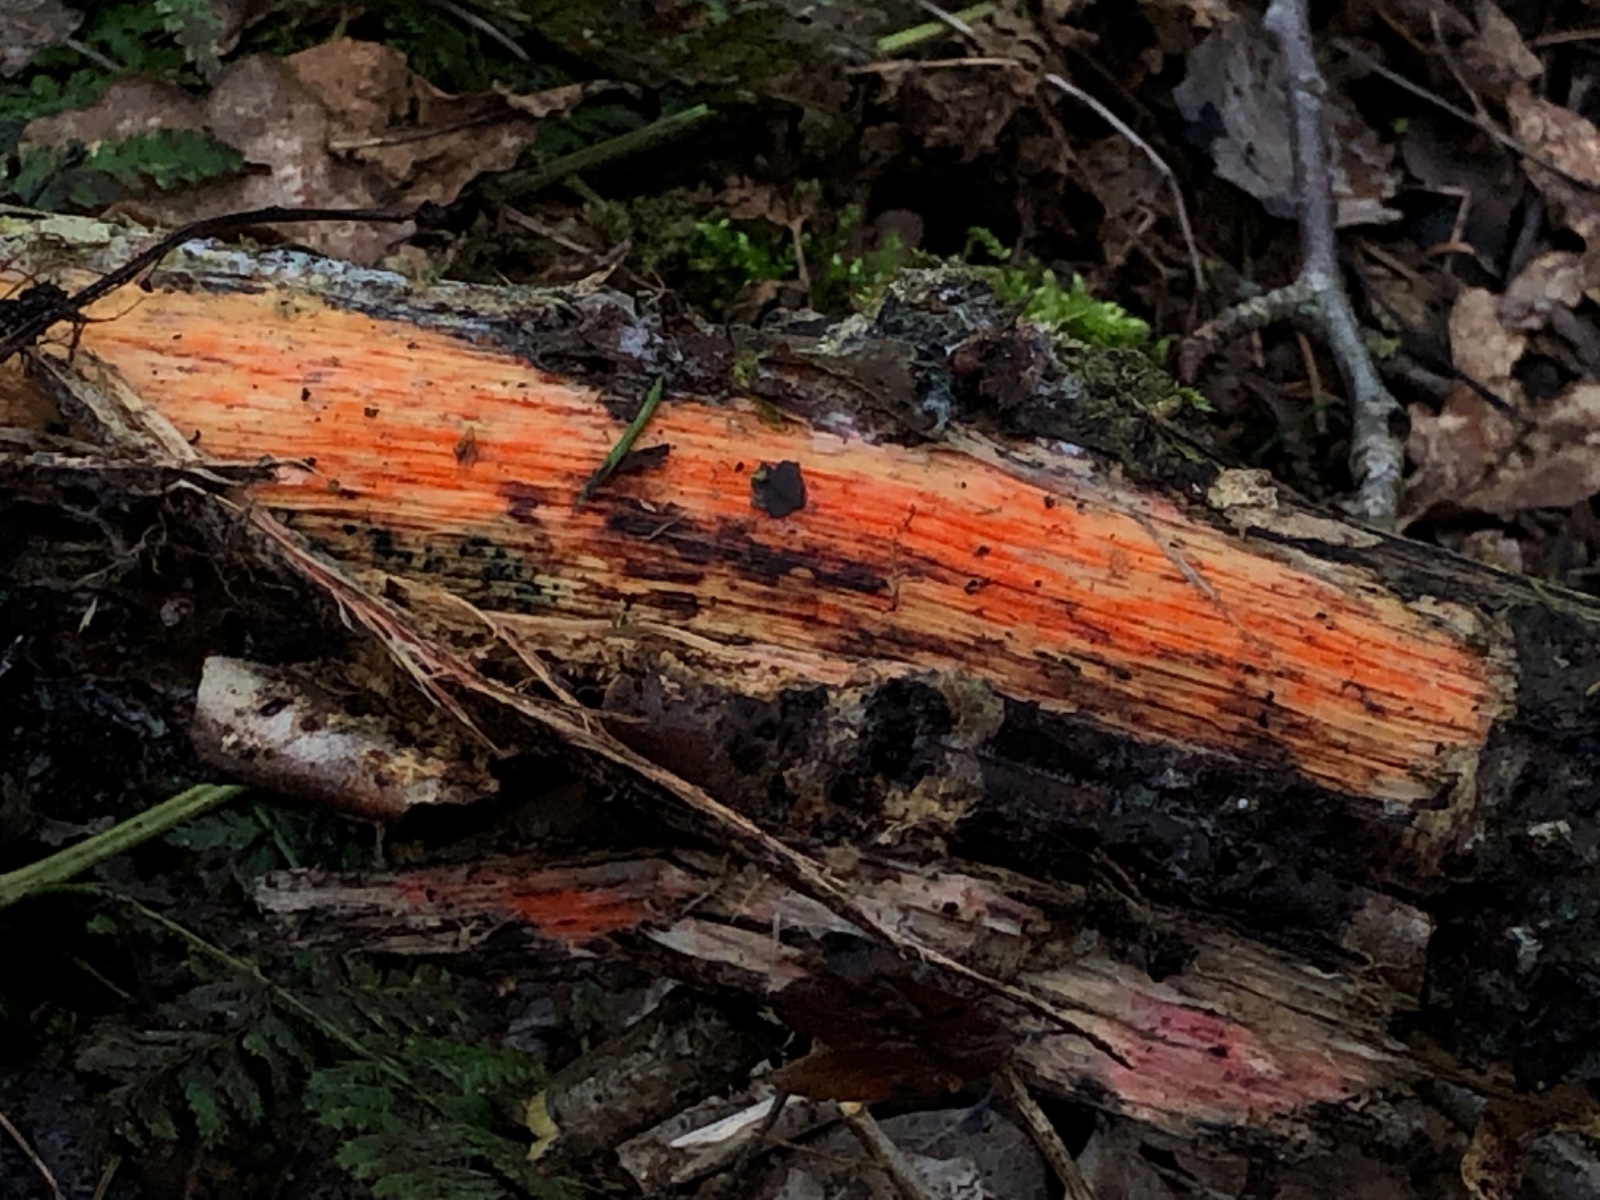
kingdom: Fungi
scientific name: Fungi
